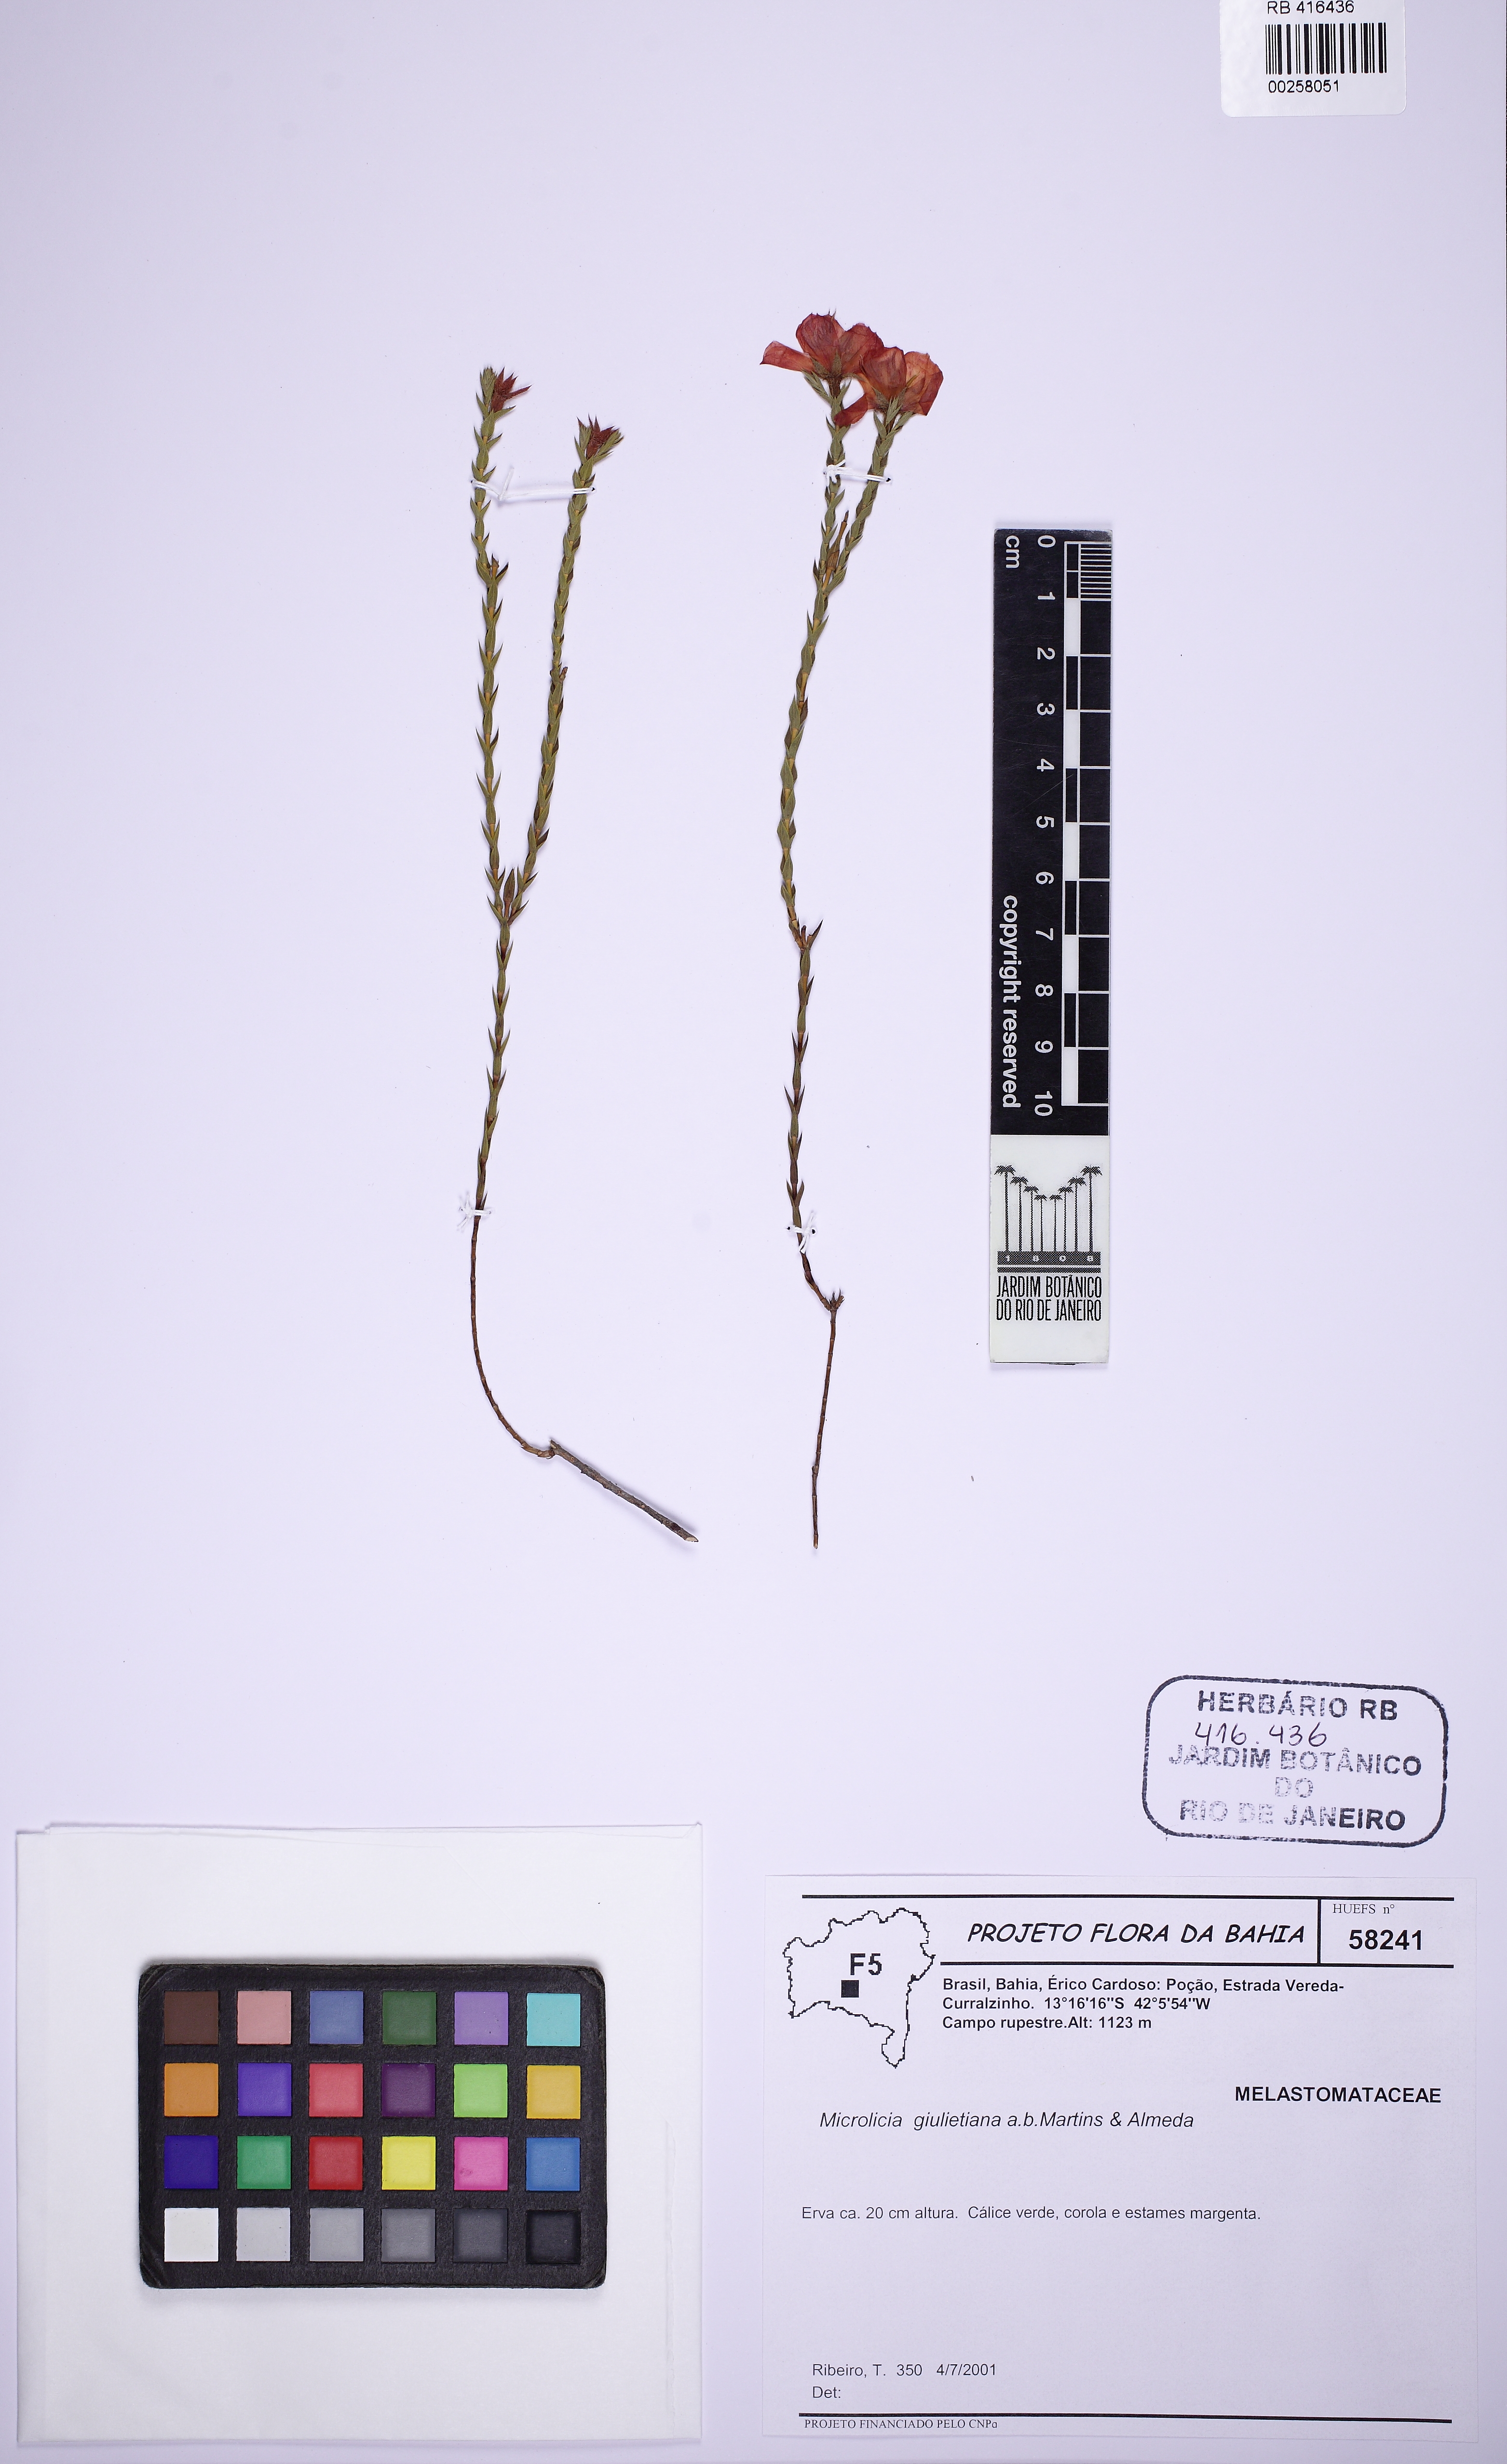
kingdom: Plantae
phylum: Tracheophyta
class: Magnoliopsida
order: Myrtales
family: Melastomataceae
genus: Microlicia
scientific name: Microlicia armata
